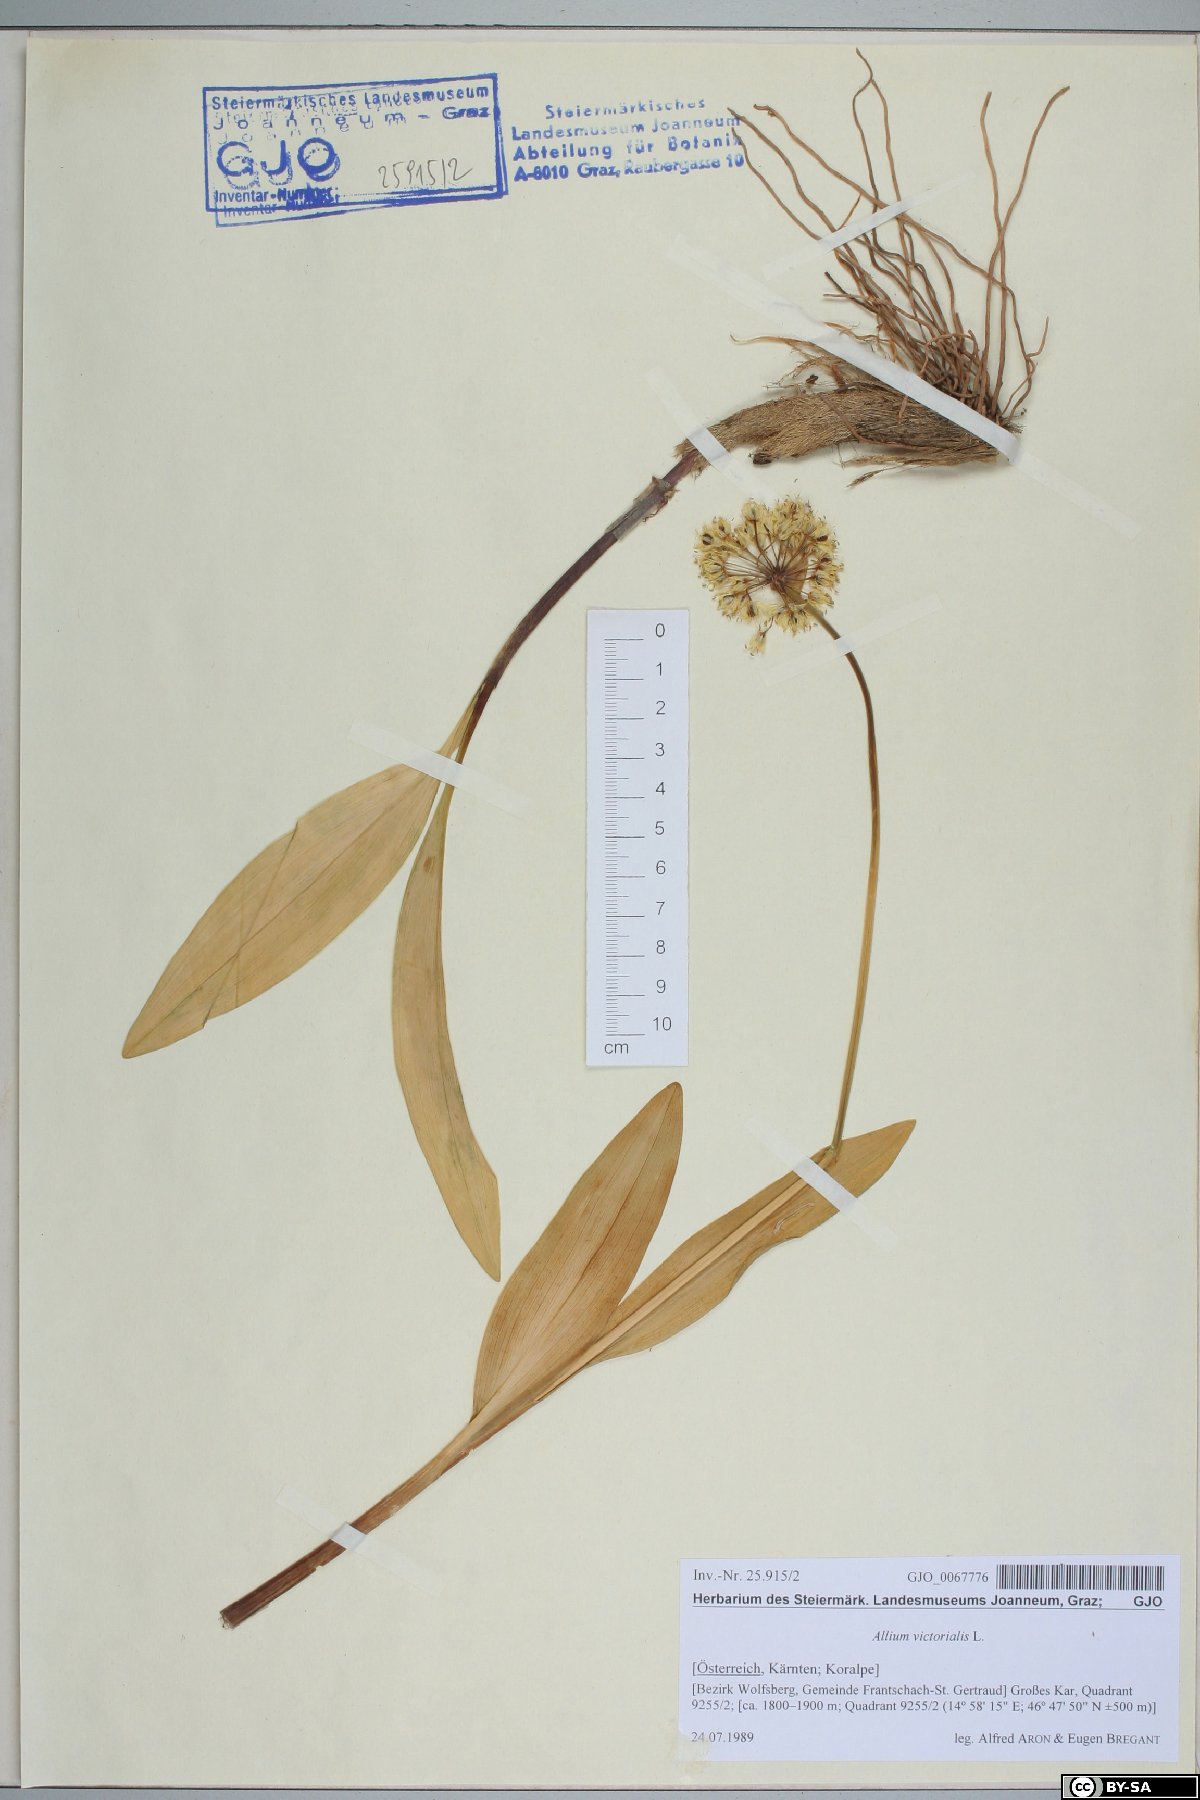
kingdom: Plantae
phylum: Tracheophyta
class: Liliopsida
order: Asparagales
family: Amaryllidaceae
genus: Allium
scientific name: Allium victorialis
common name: Alpine leek
